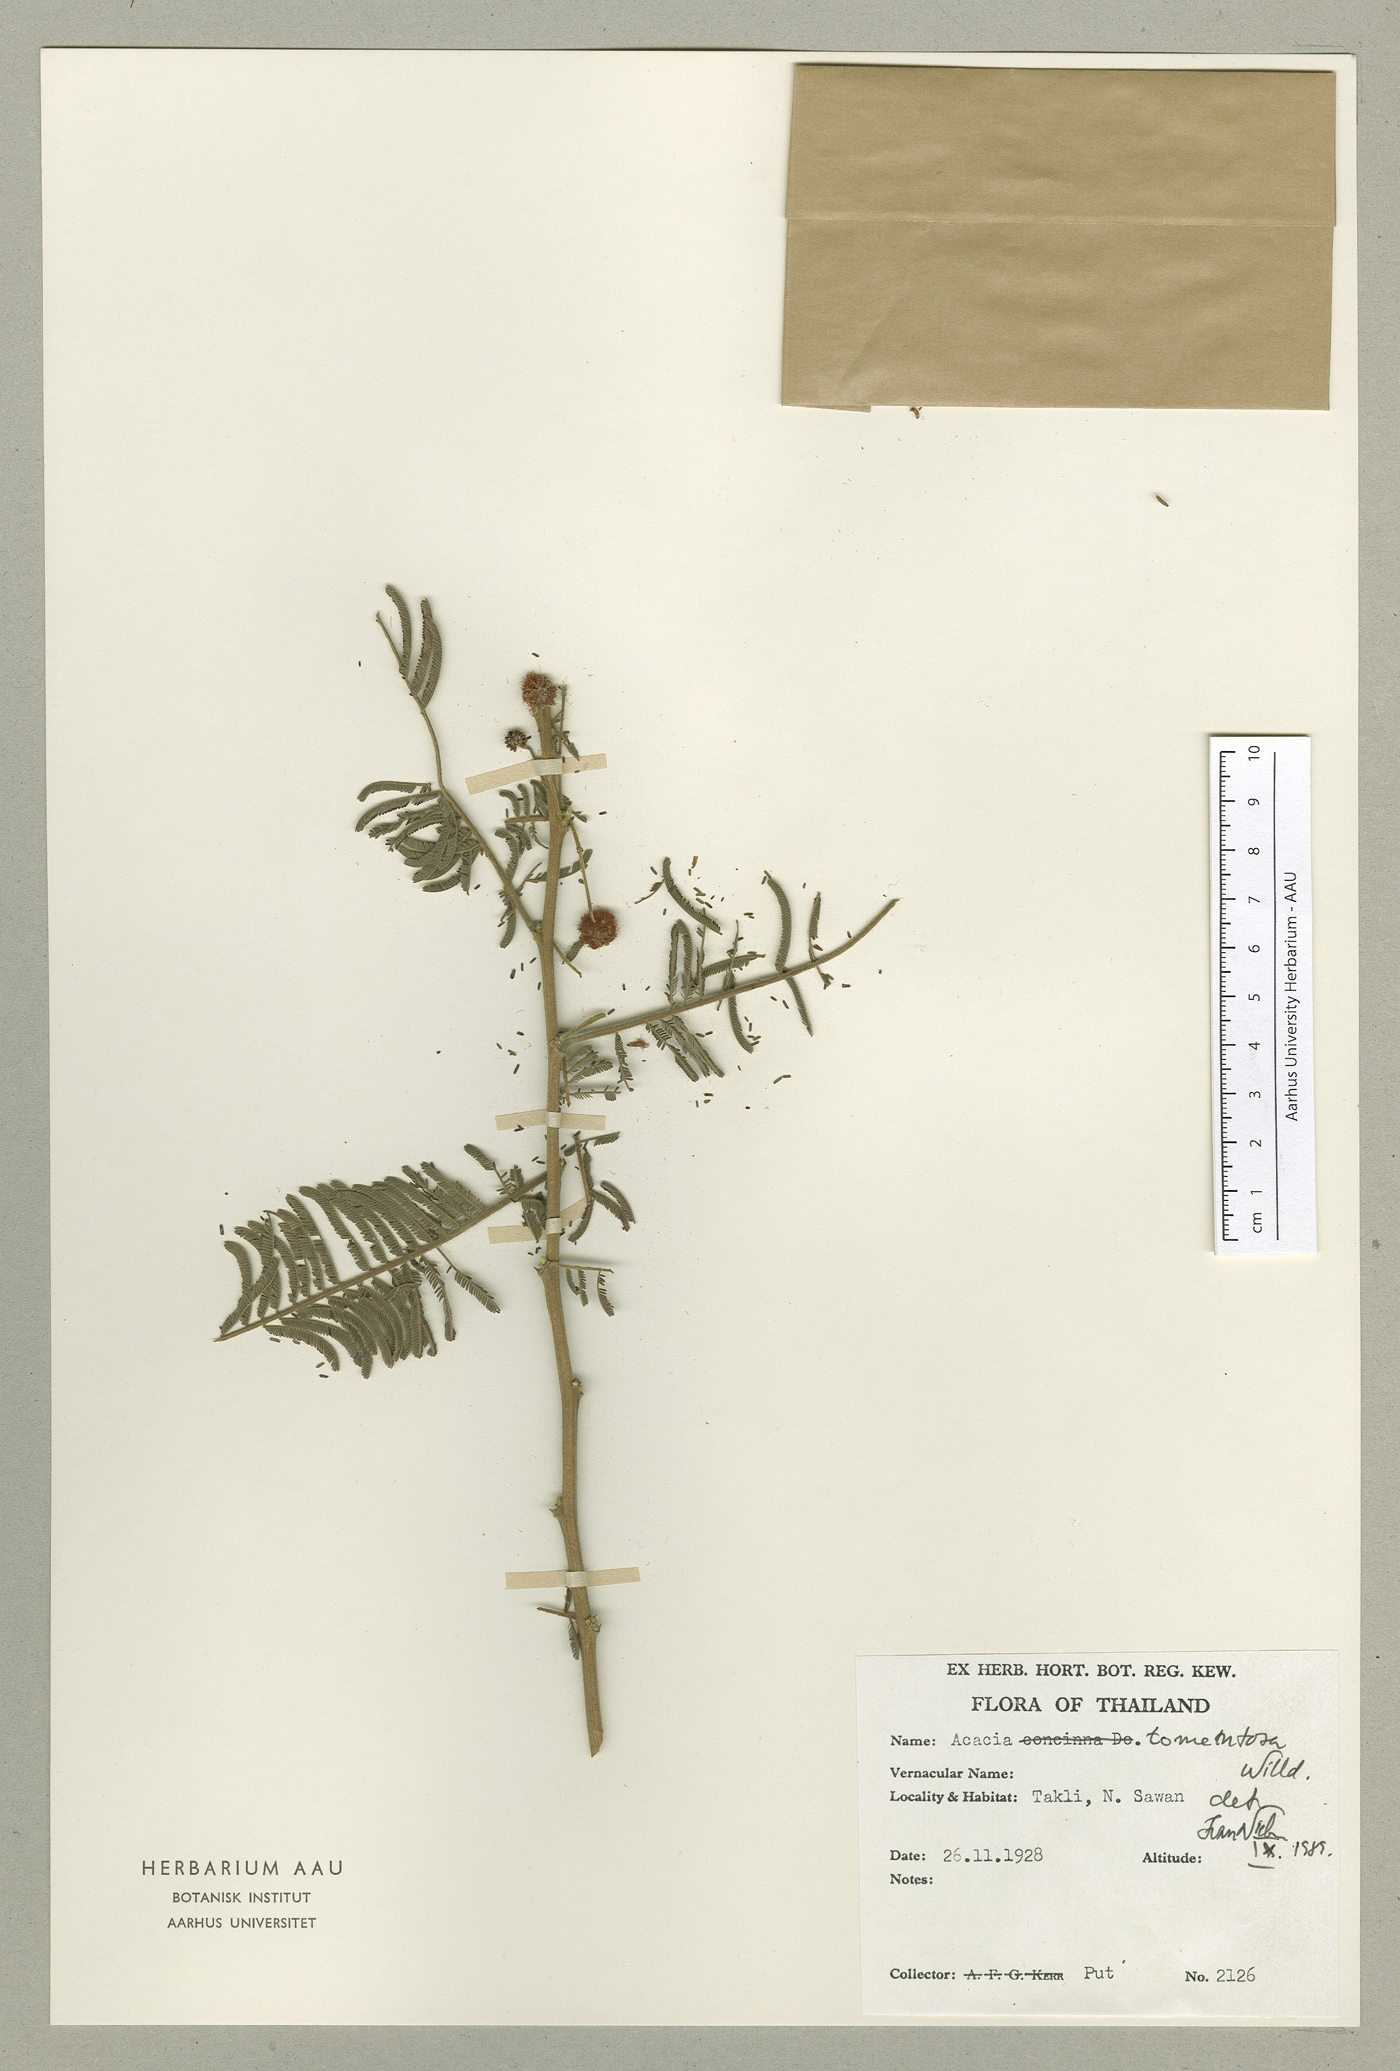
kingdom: Plantae
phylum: Tracheophyta
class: Magnoliopsida
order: Fabales
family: Fabaceae
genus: Vachellia
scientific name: Vachellia tomentosa
